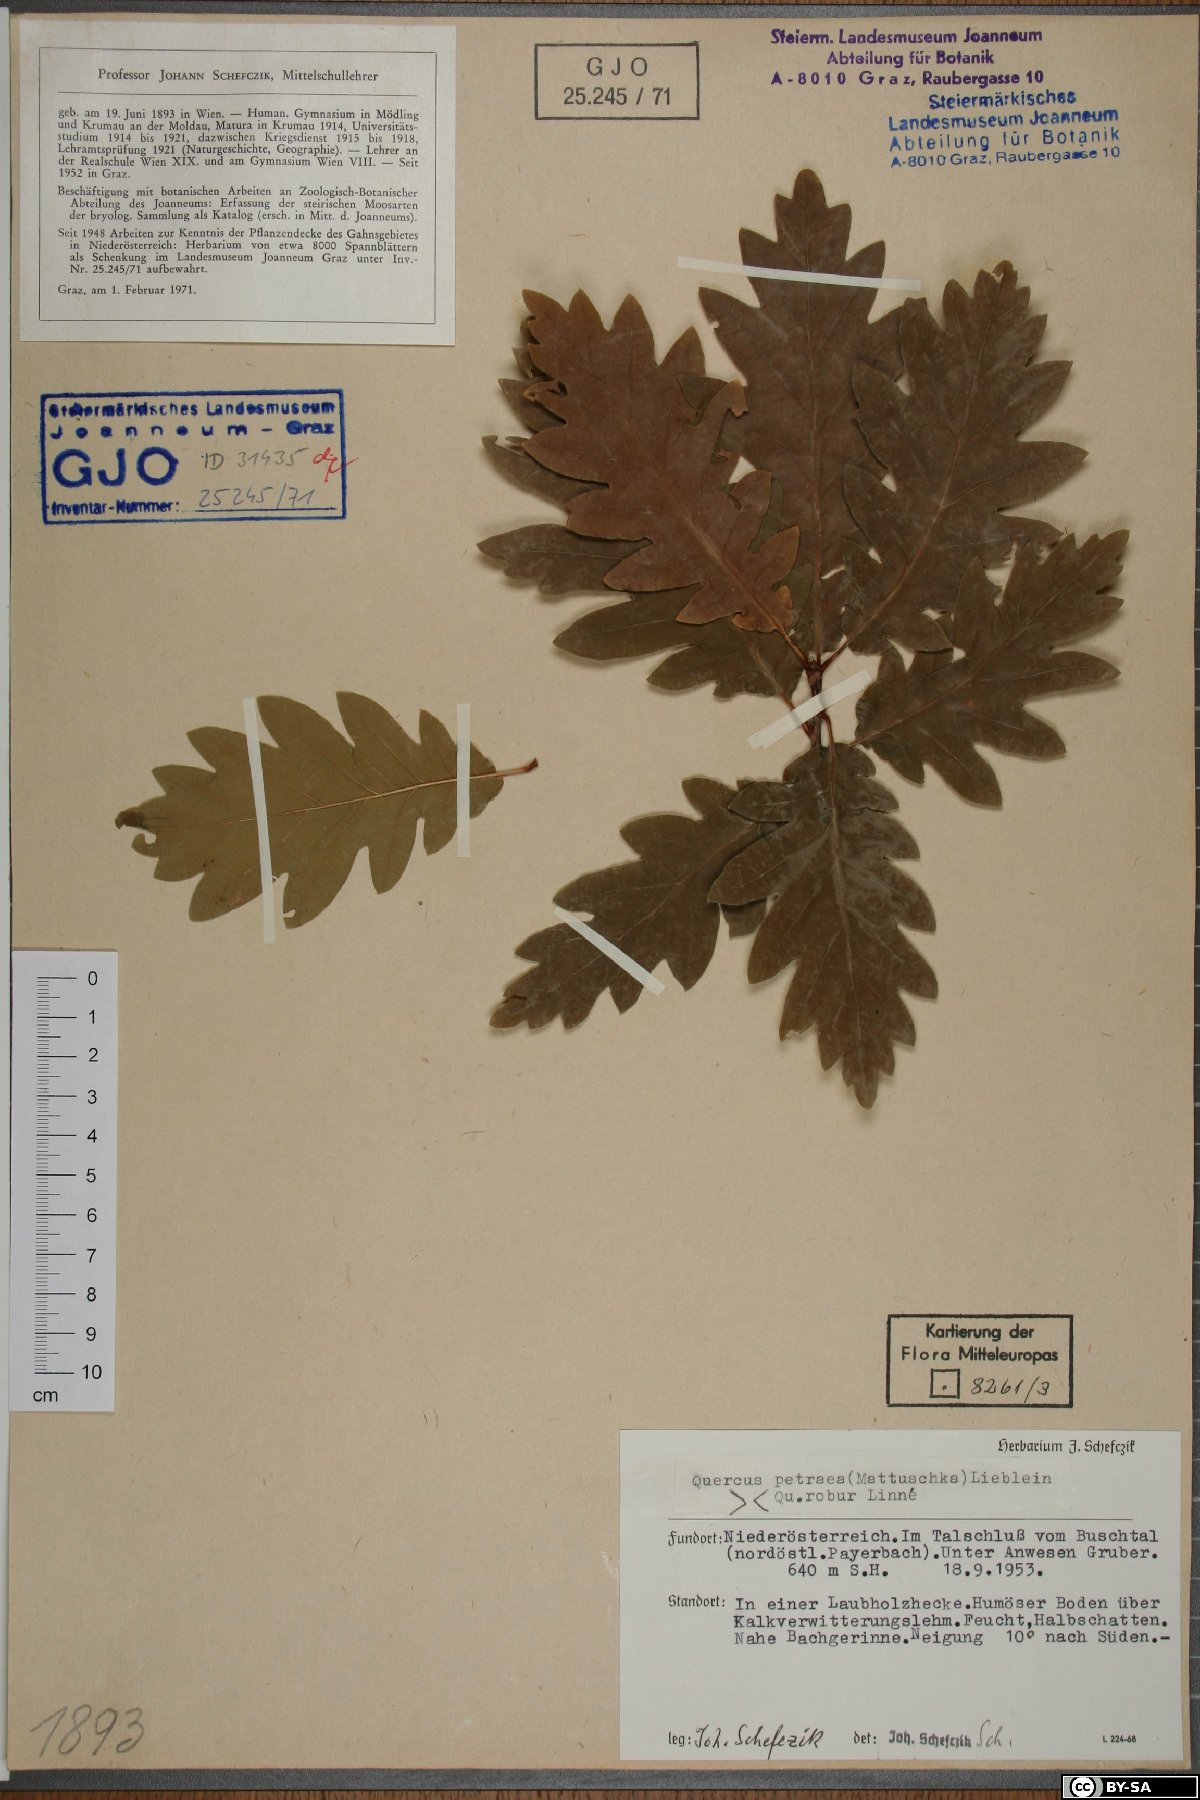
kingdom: Plantae
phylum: Tracheophyta
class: Magnoliopsida
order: Fagales
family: Fagaceae
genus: Quercus
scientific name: Quercus petraea
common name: Sessile oak
